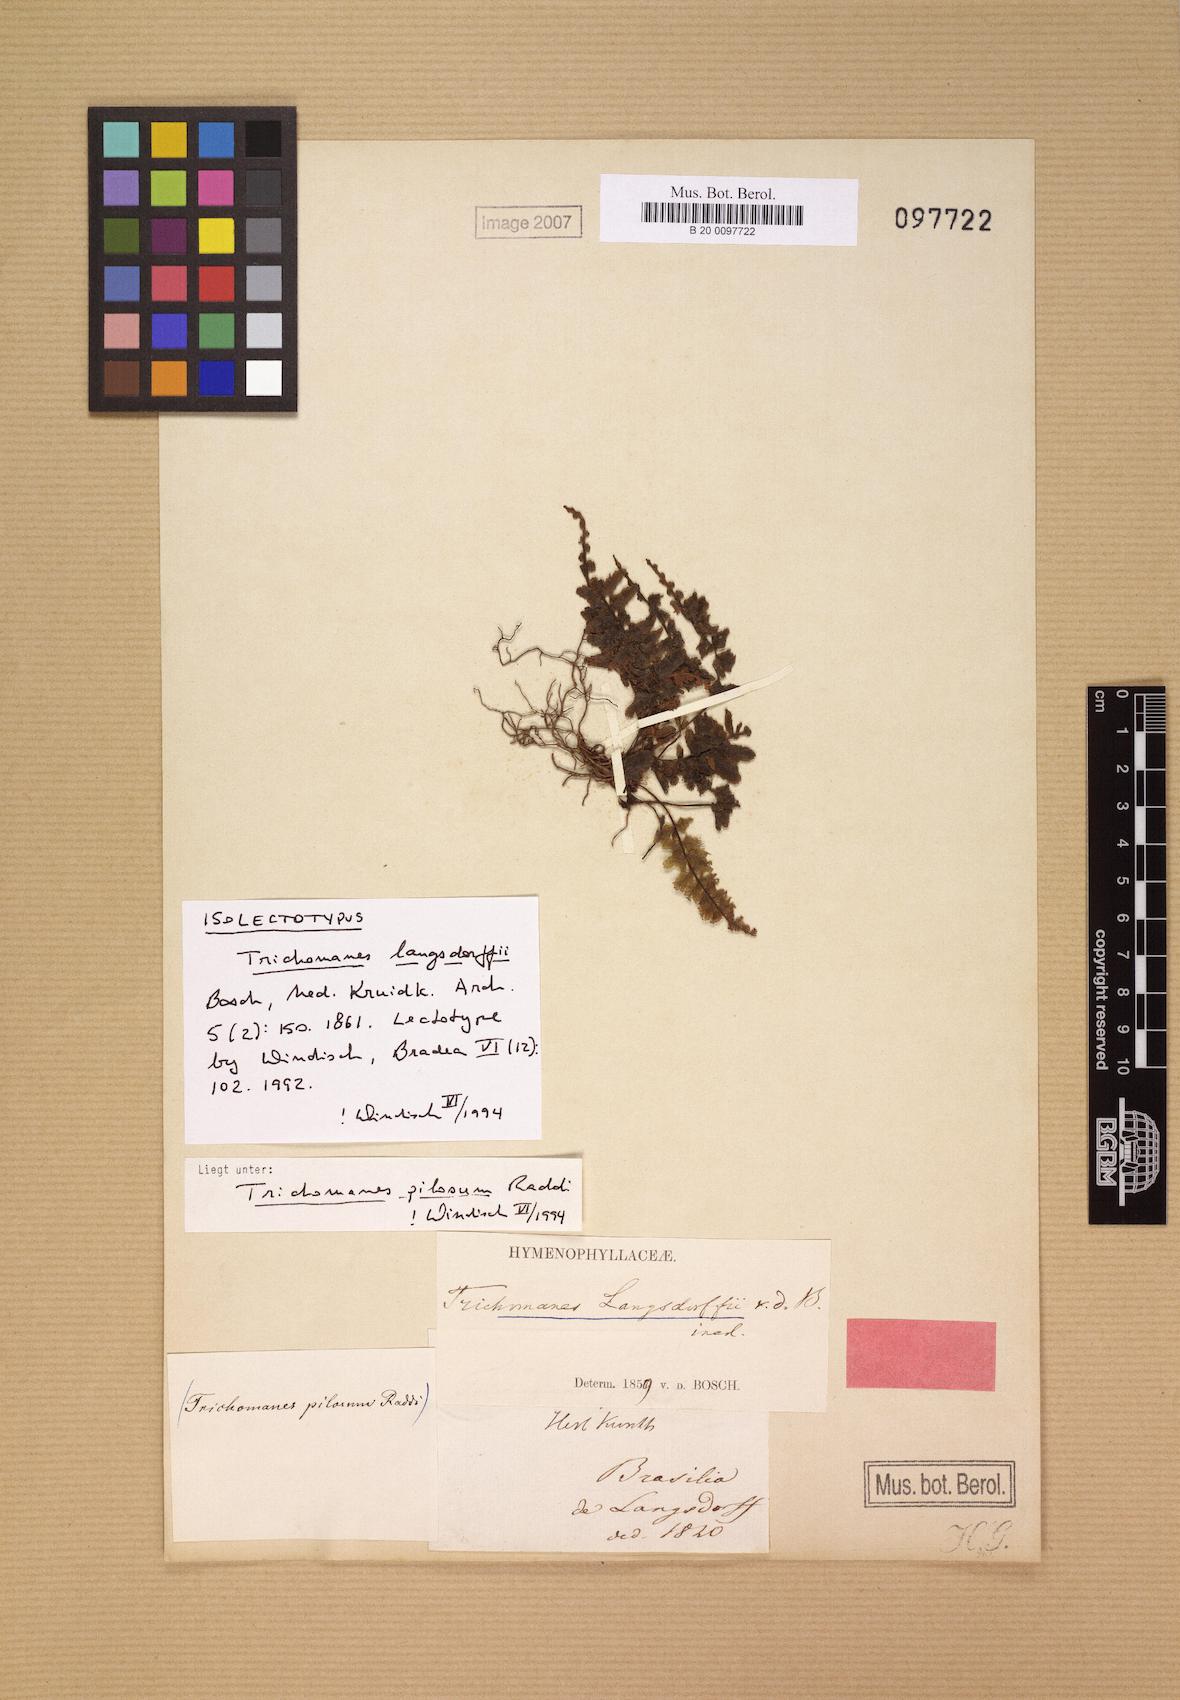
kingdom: Plantae
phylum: Tracheophyta
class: Polypodiopsida
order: Hymenophyllales
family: Hymenophyllaceae
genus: Trichomanes
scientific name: Trichomanes pilosum
